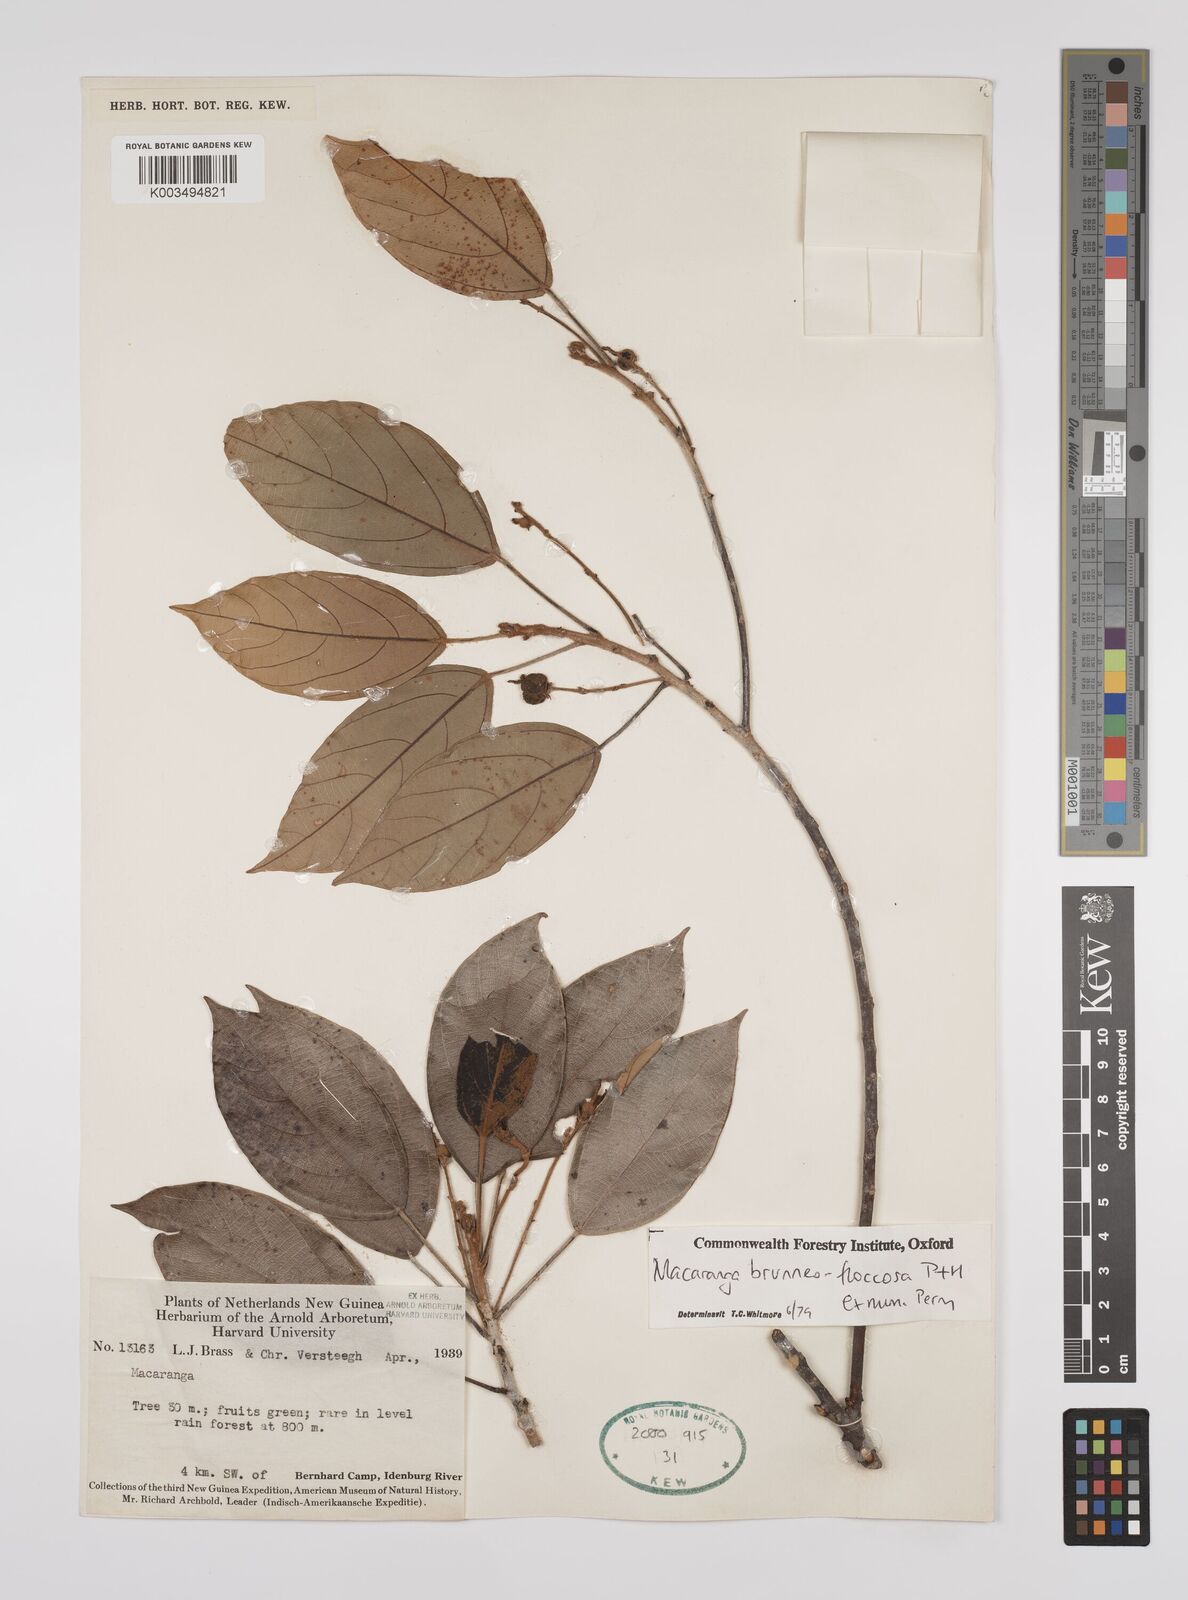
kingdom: Plantae
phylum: Tracheophyta
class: Magnoliopsida
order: Malpighiales
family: Euphorbiaceae
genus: Macaranga
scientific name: Macaranga brunneofloccosa
